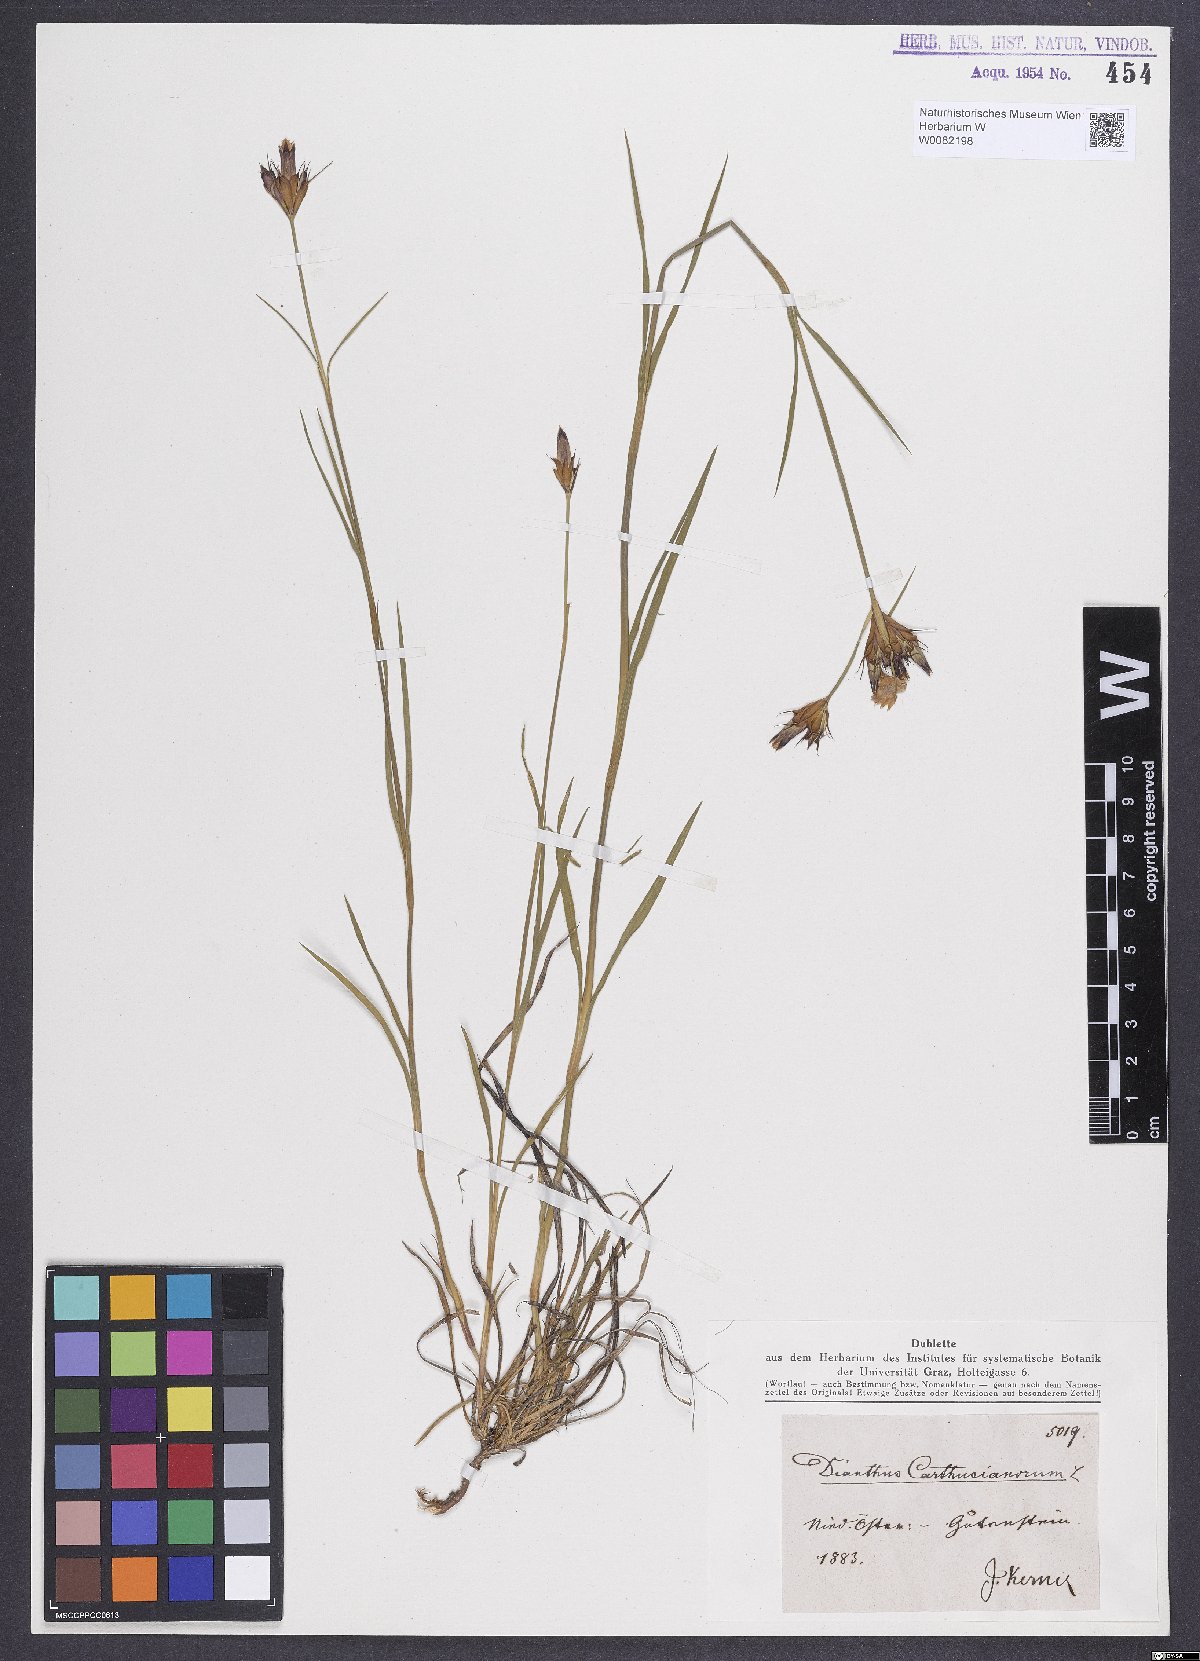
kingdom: Plantae
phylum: Tracheophyta
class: Magnoliopsida
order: Caryophyllales
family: Caryophyllaceae
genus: Dianthus
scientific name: Dianthus carthusianorum
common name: Carthusian pink
